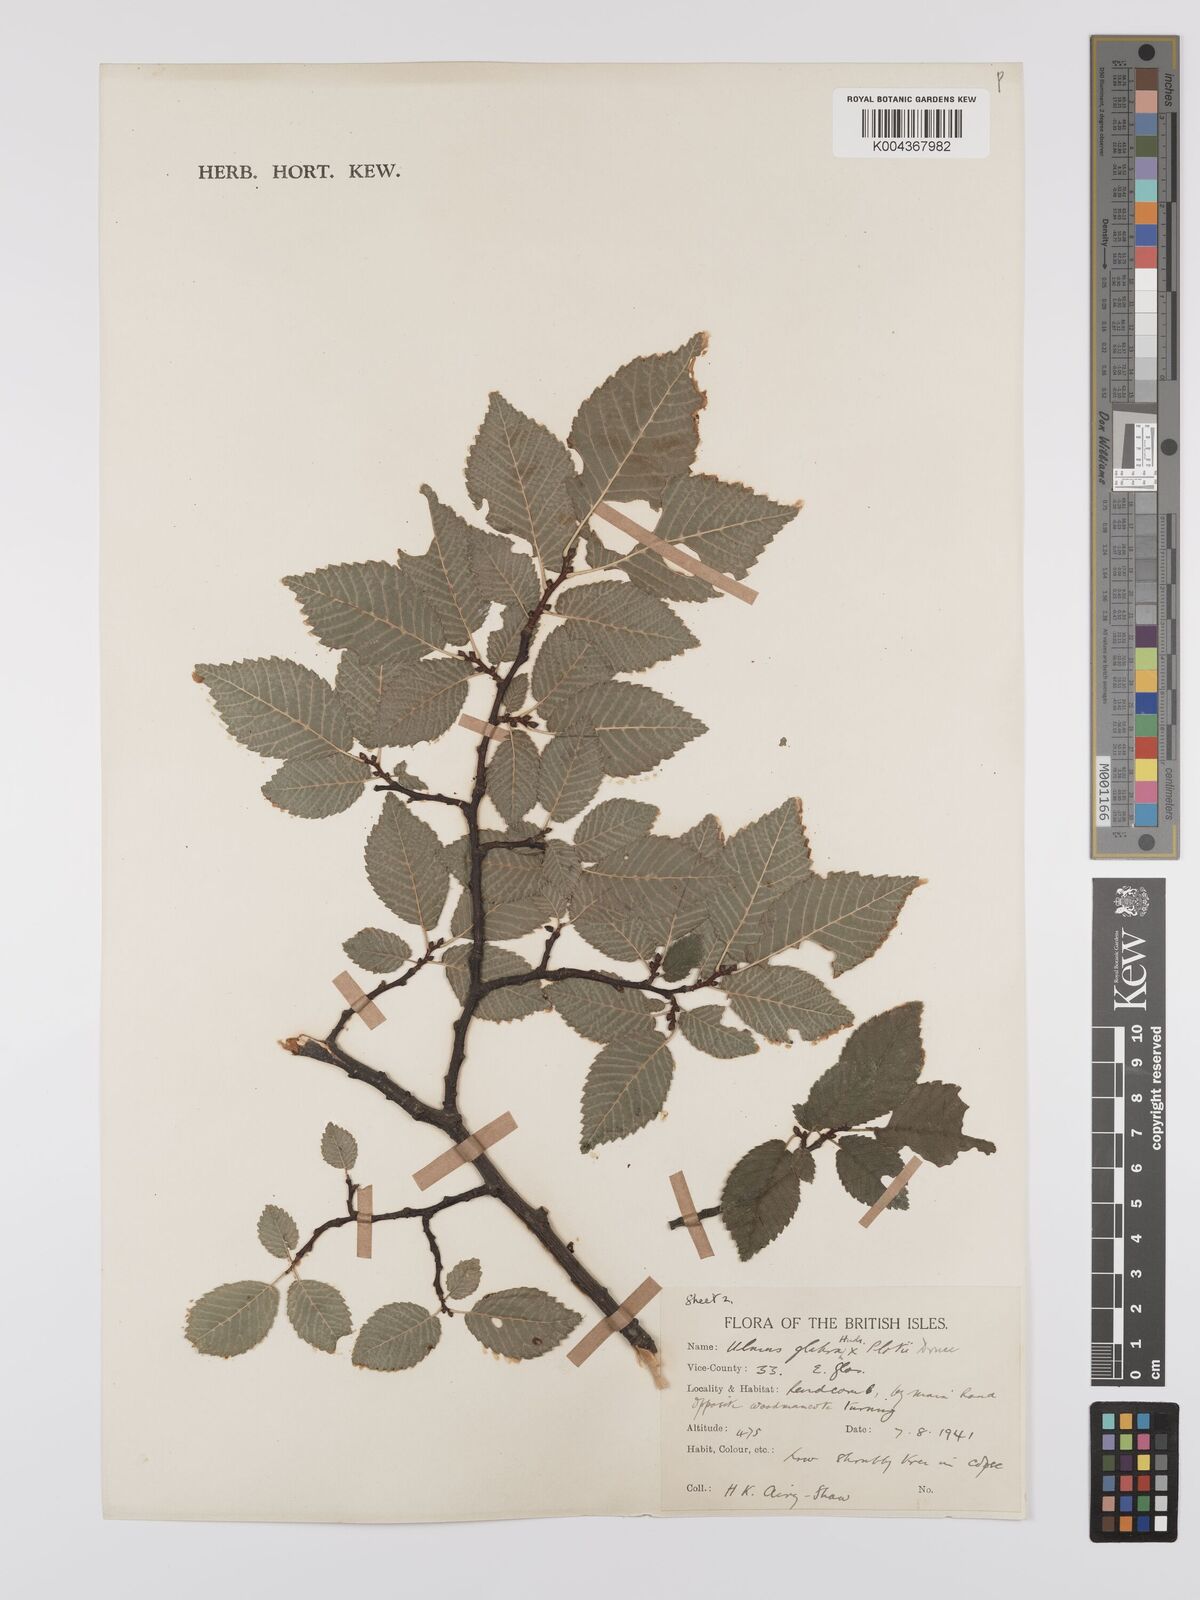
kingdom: Plantae
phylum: Tracheophyta
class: Magnoliopsida
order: Rosales
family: Ulmaceae
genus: Ulmus
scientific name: Ulmus
